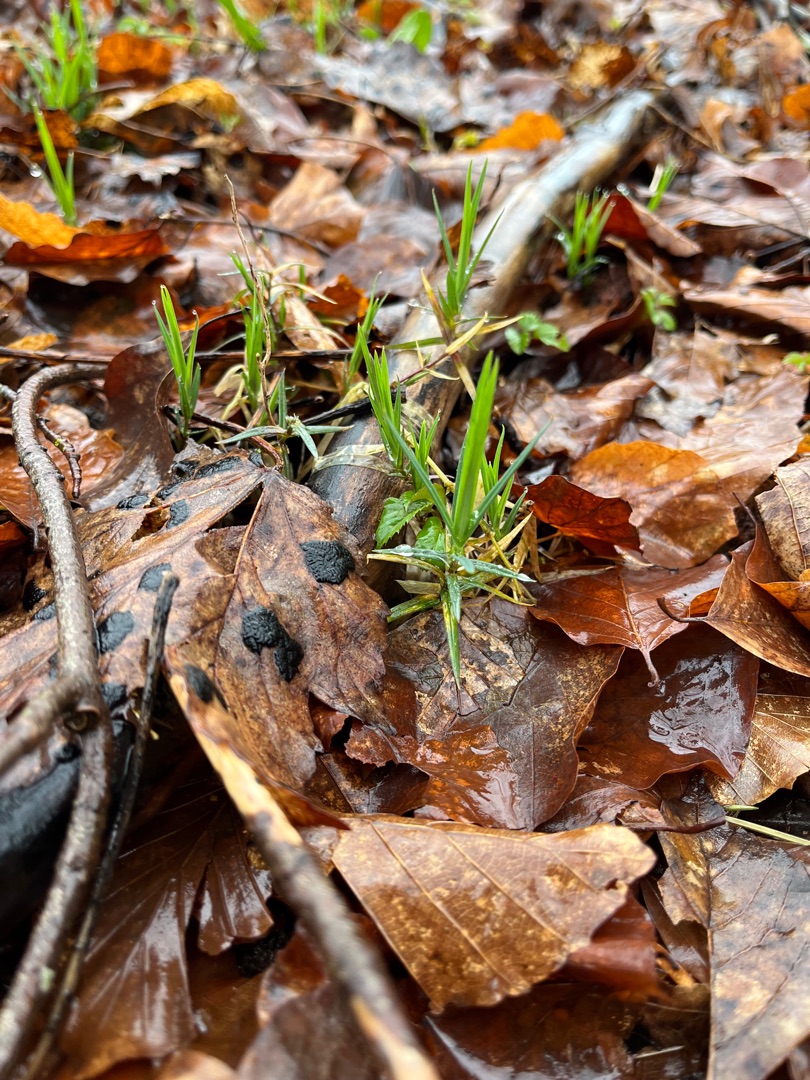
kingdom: Plantae
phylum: Tracheophyta
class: Magnoliopsida
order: Caryophyllales
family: Caryophyllaceae
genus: Rabelera
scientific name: Rabelera holostea
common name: Stor fladstjerne
